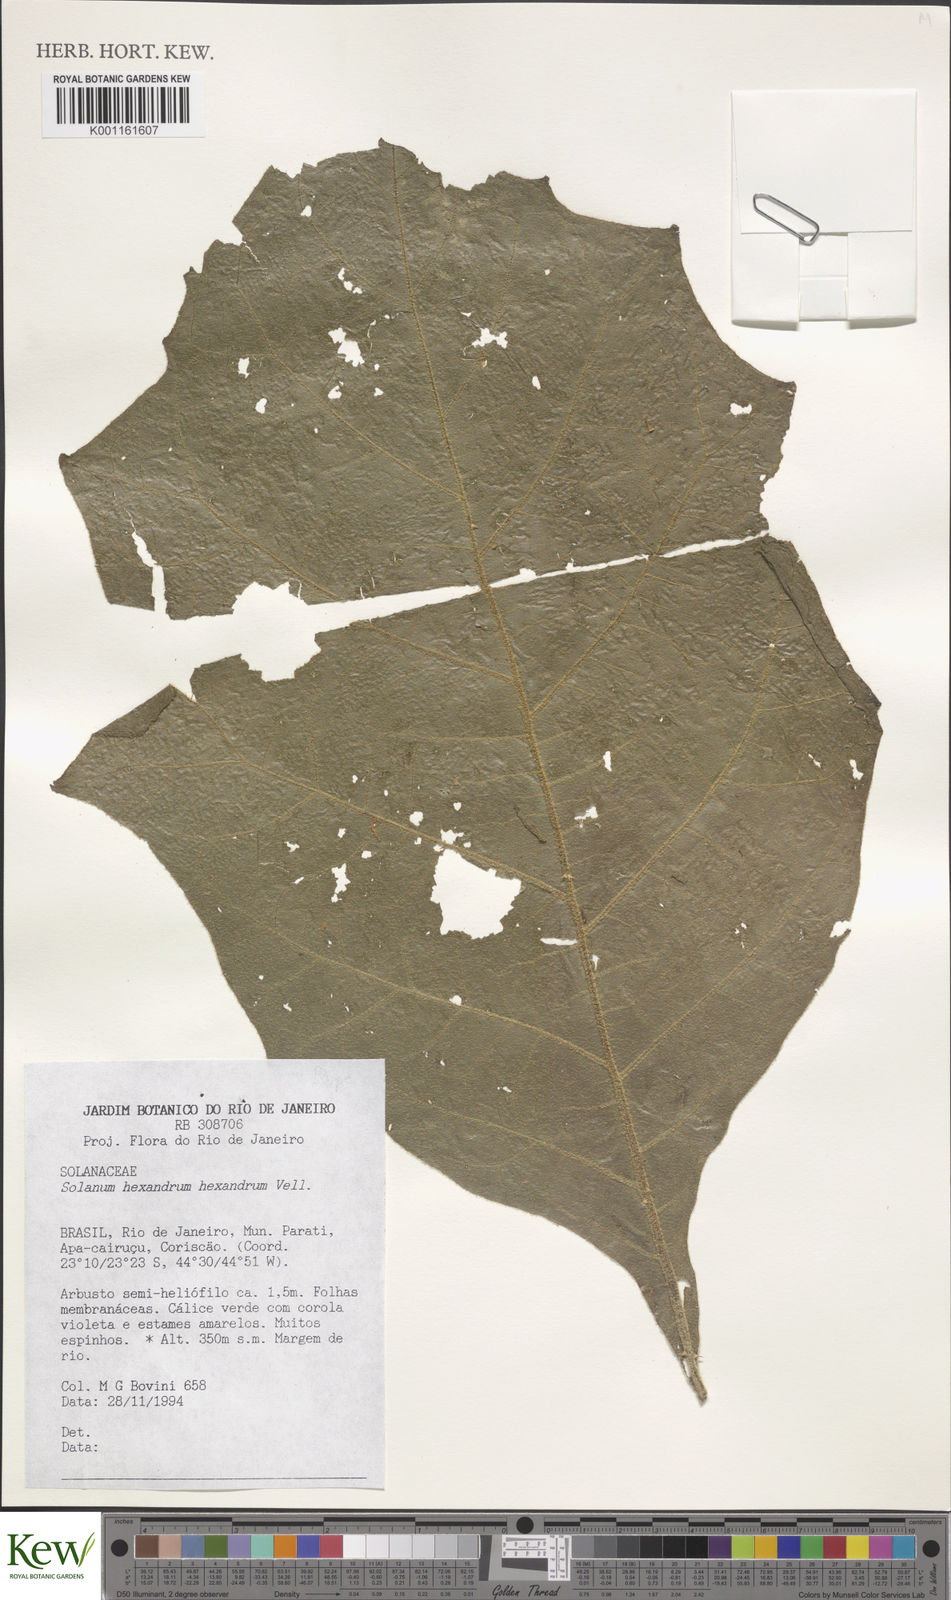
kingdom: Plantae
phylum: Tracheophyta
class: Magnoliopsida
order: Solanales
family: Solanaceae
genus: Solanum
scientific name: Solanum hexandrum
